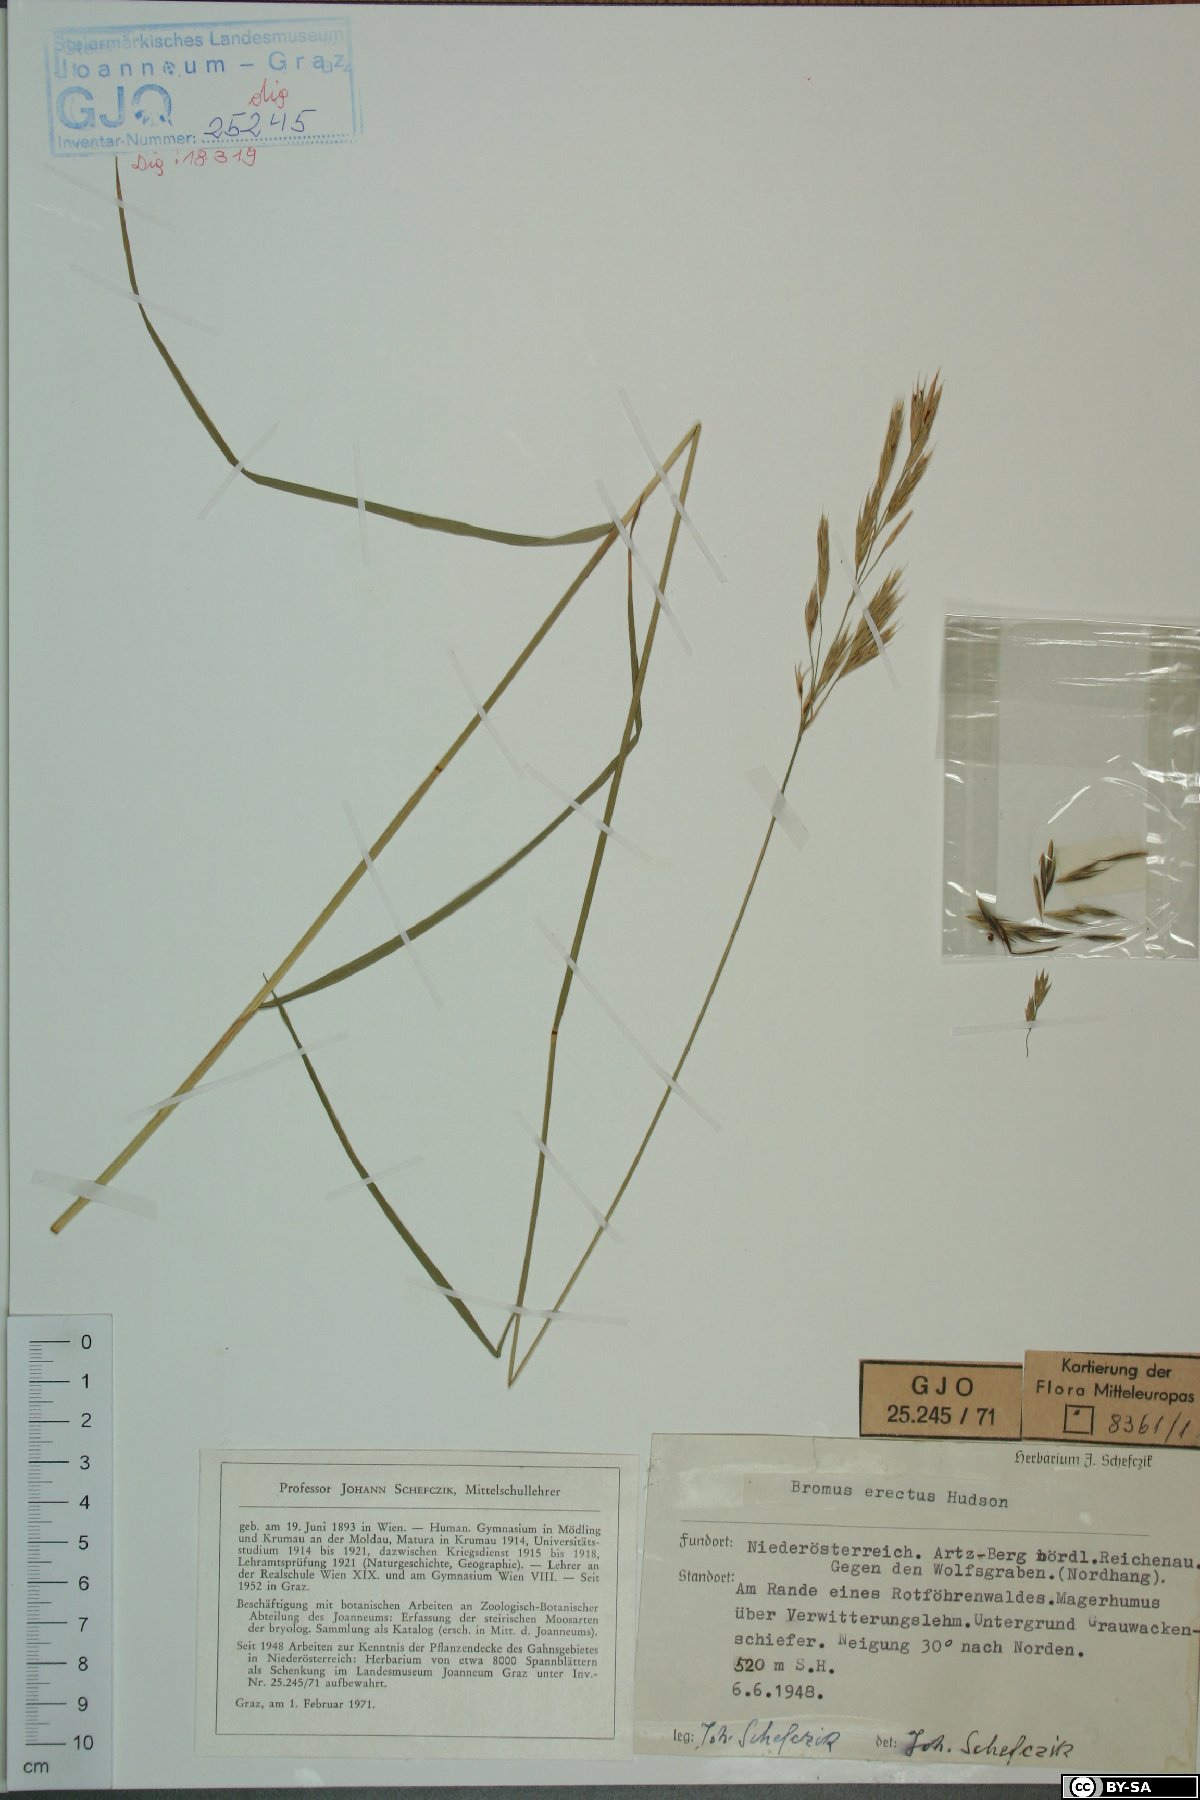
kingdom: Plantae
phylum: Tracheophyta
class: Liliopsida
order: Poales
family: Poaceae
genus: Bromus
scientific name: Bromus erectus
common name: Erect brome
